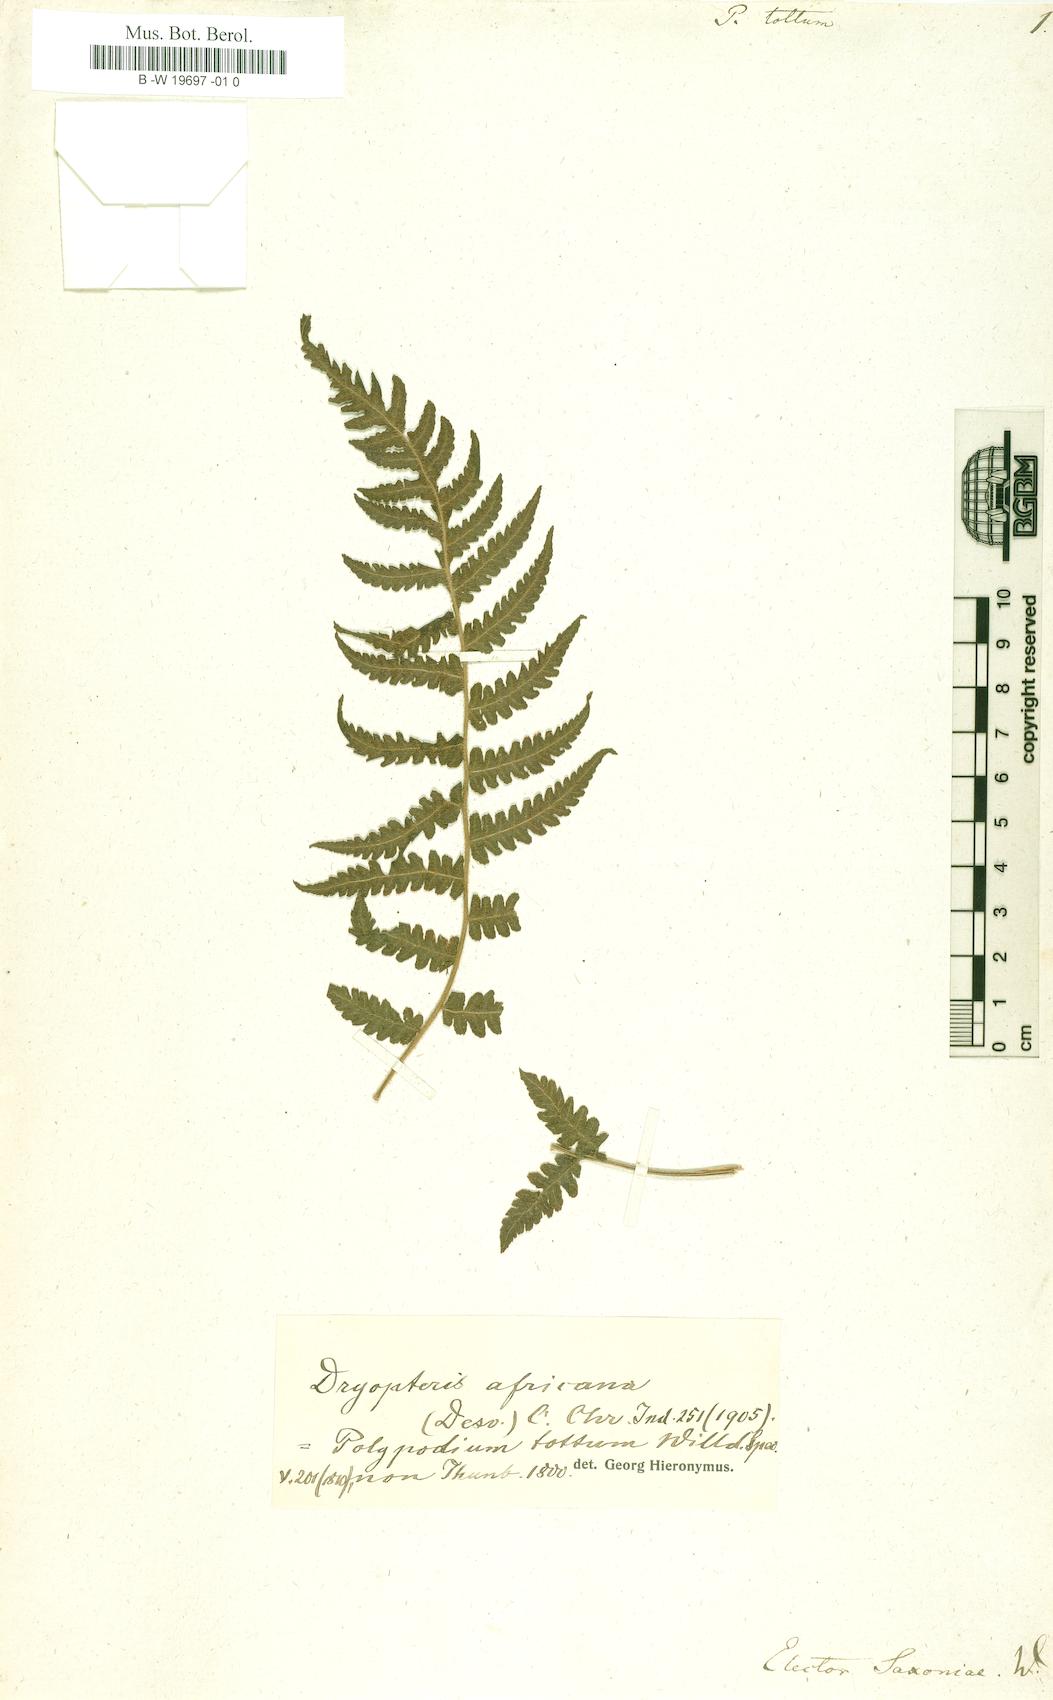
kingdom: Plantae
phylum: Tracheophyta
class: Polypodiopsida
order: Polypodiales
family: Thelypteridaceae
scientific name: Thelypteridaceae
